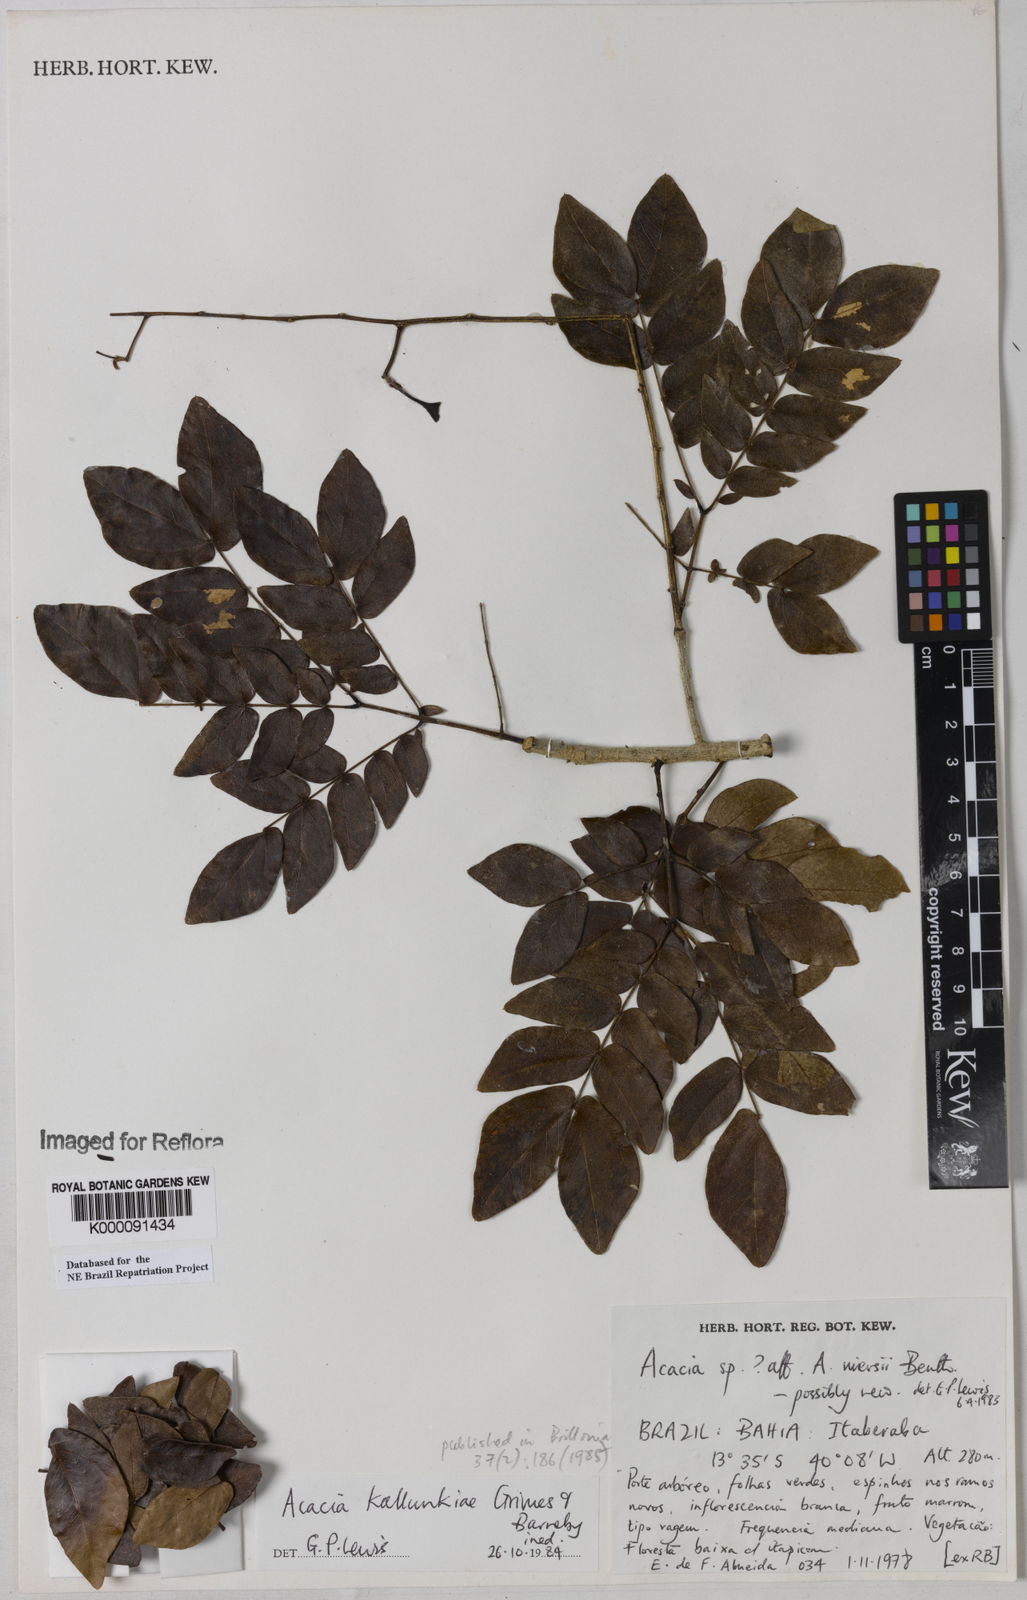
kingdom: Plantae
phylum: Tracheophyta
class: Magnoliopsida
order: Fabales
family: Fabaceae
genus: Senegalia
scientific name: Senegalia kallunkiae
